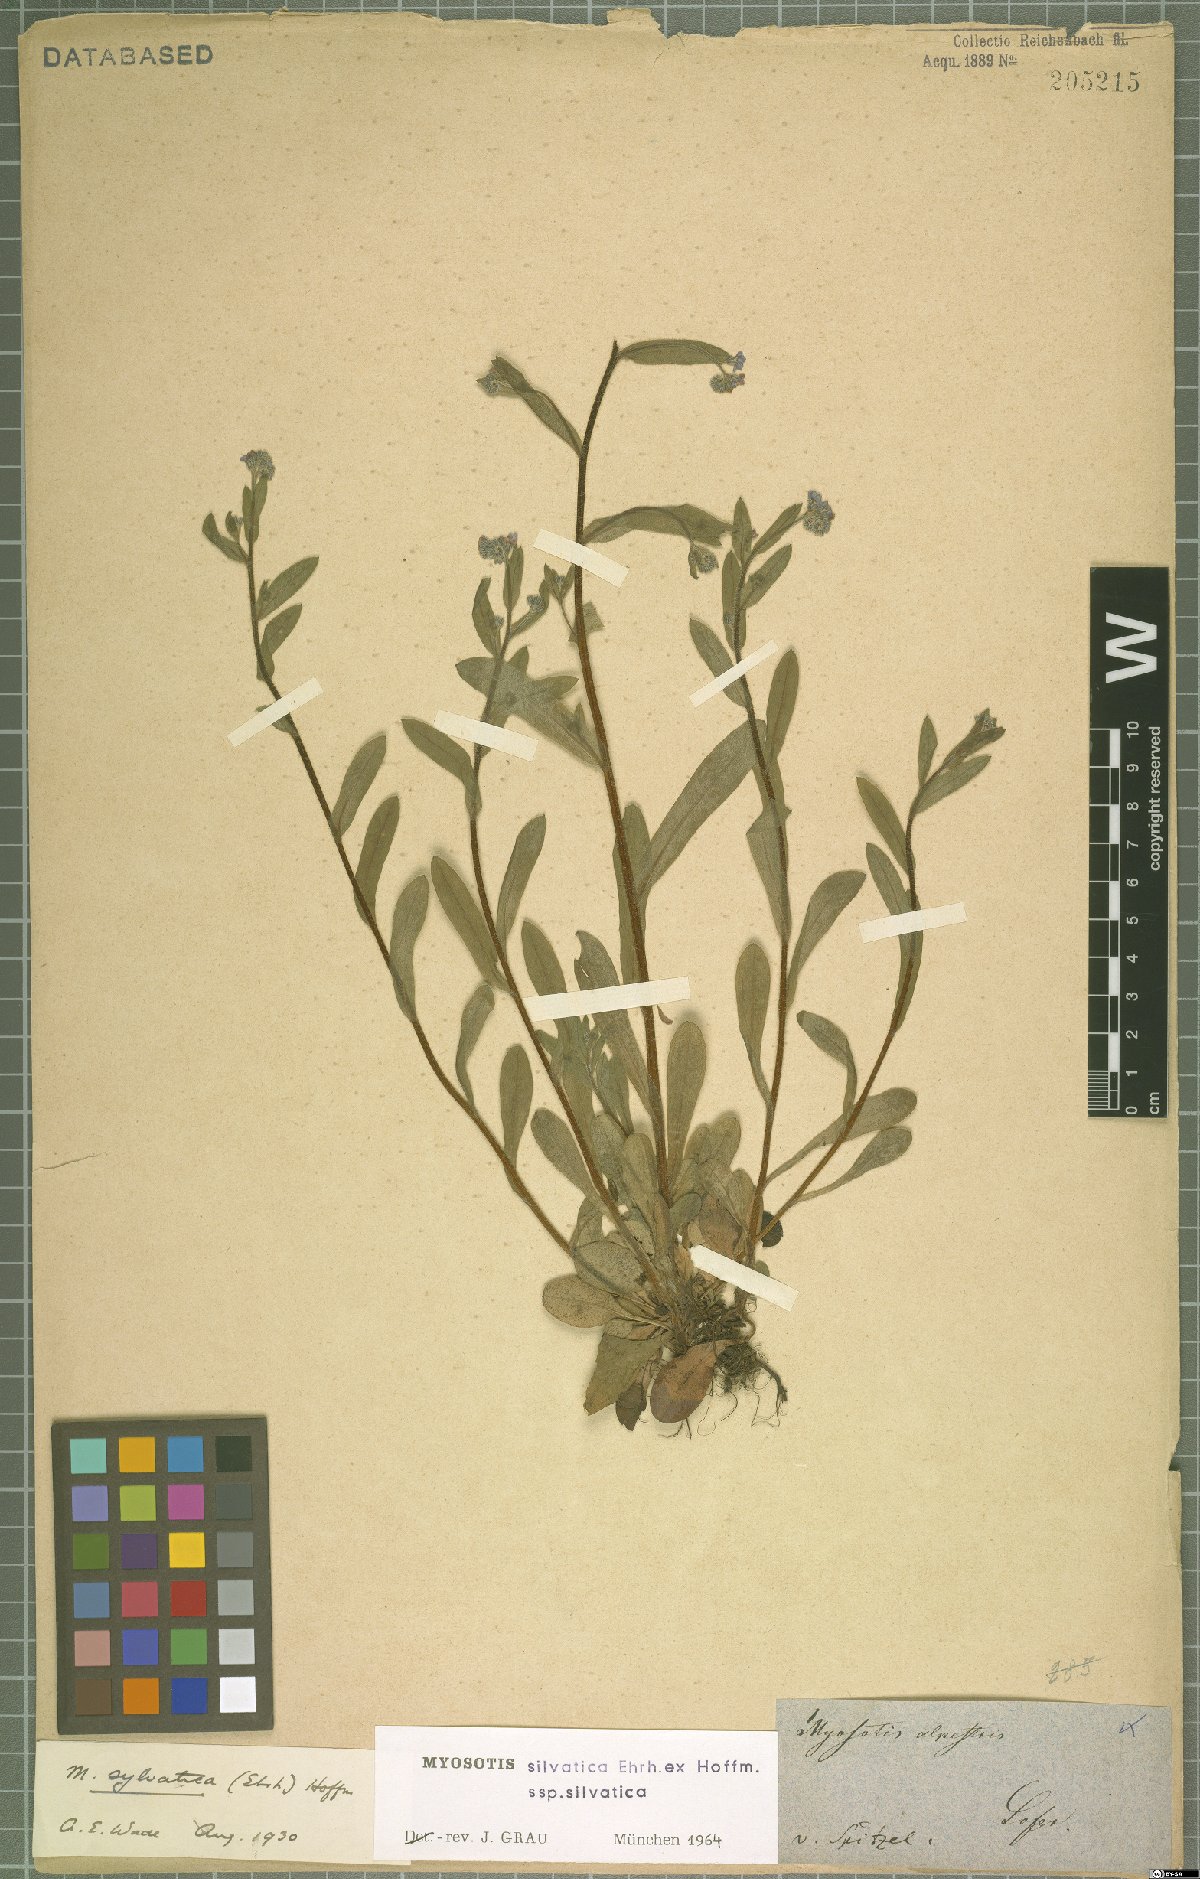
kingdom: Plantae
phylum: Tracheophyta
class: Magnoliopsida
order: Boraginales
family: Boraginaceae
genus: Myosotis
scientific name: Myosotis sylvatica
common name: Wood forget-me-not
